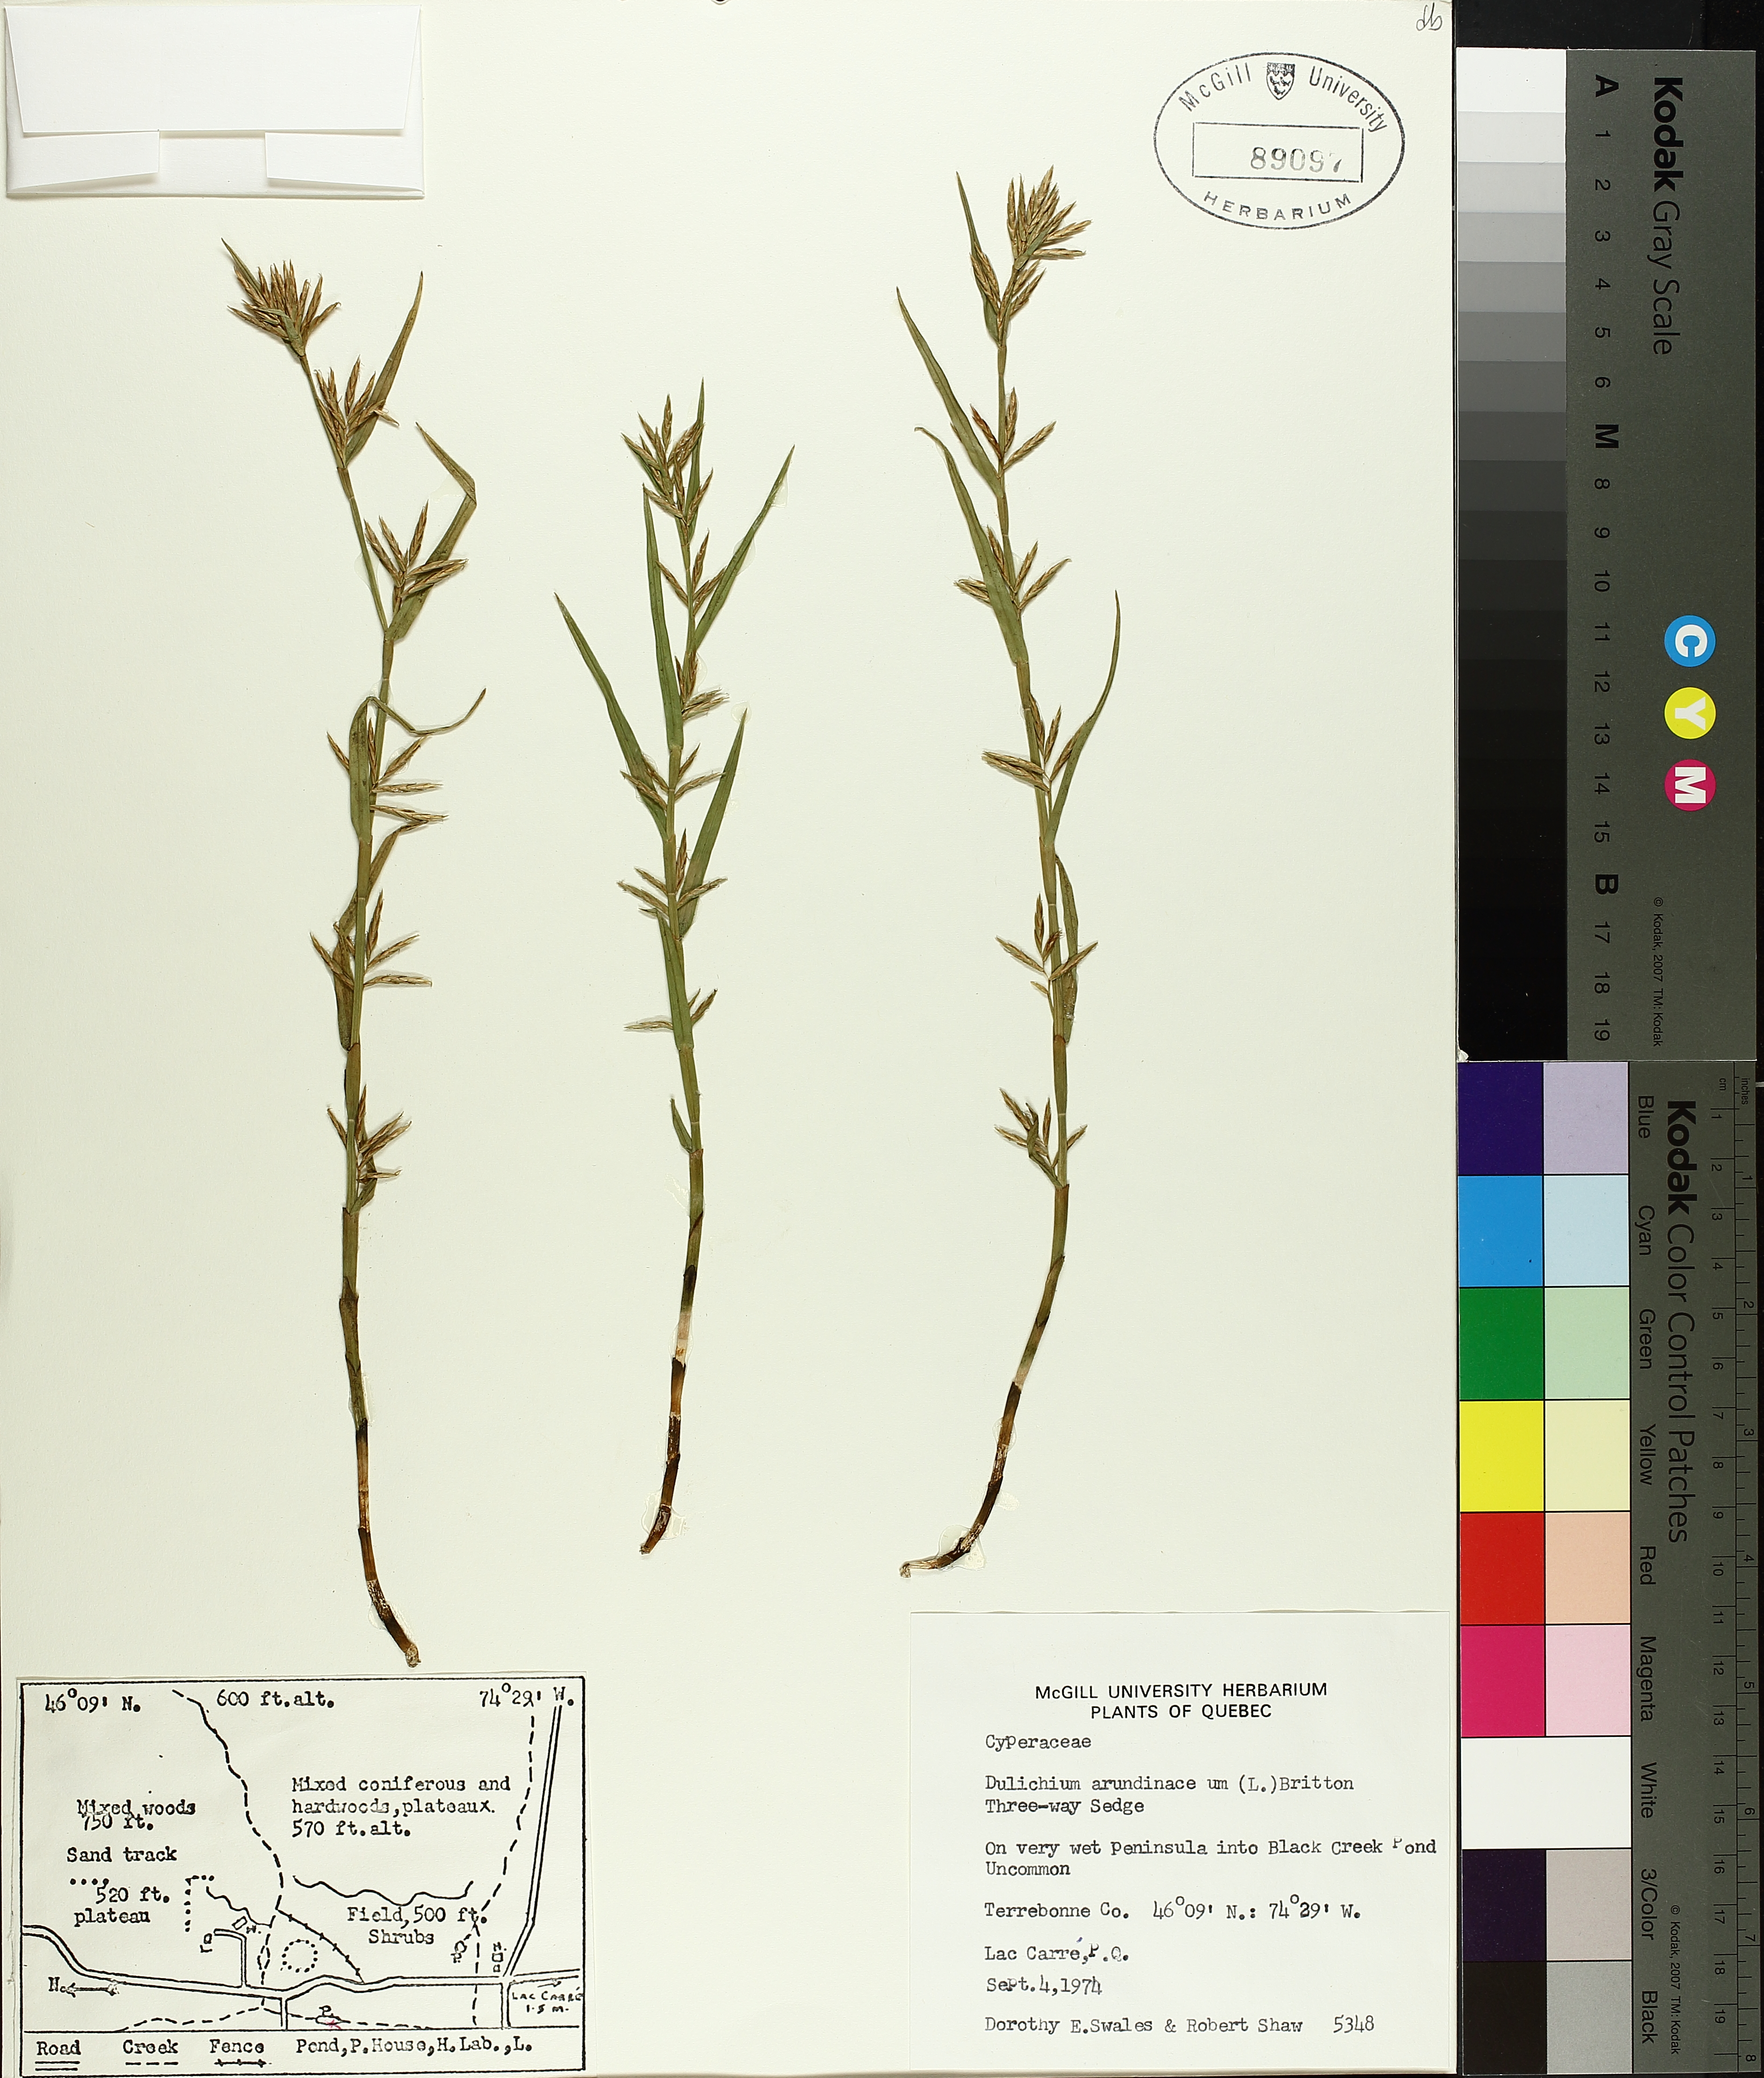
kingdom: Plantae
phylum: Tracheophyta
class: Liliopsida
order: Poales
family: Cyperaceae
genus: Dulichium
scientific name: Dulichium arundinaceum
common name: Three-way sedge
